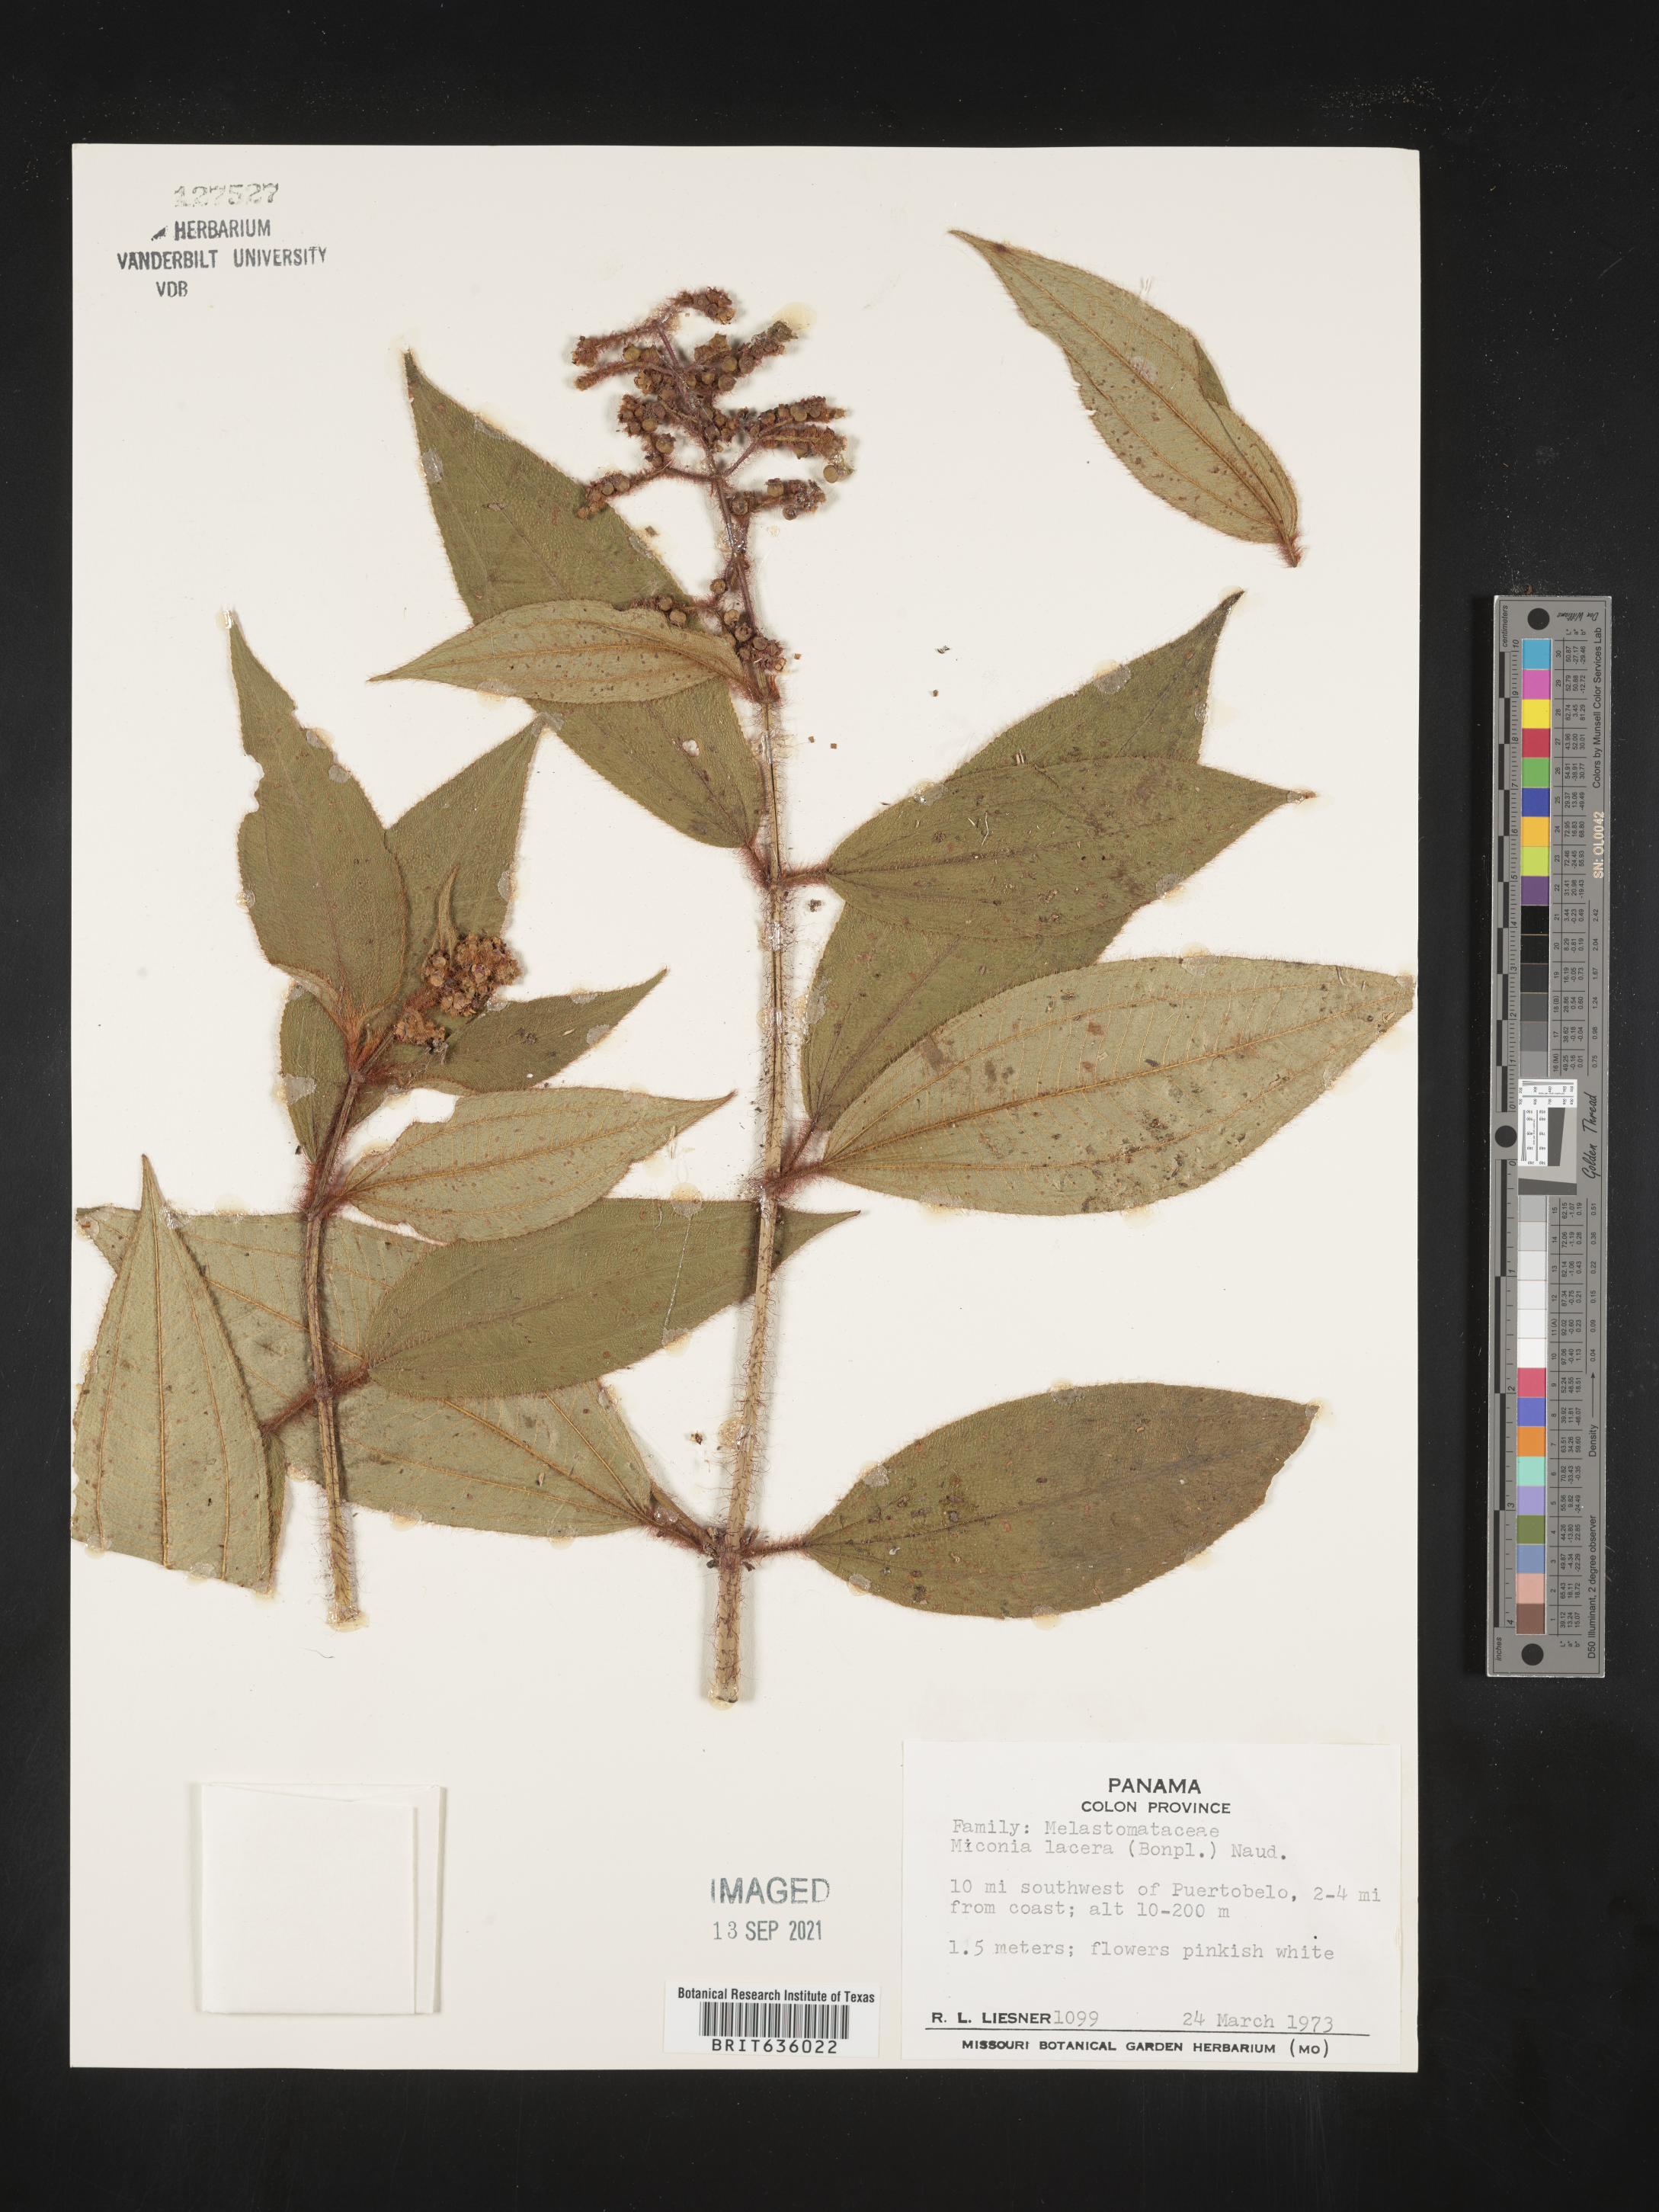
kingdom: Plantae
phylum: Tracheophyta
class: Magnoliopsida
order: Myrtales
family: Melastomataceae
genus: Miconia
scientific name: Miconia
